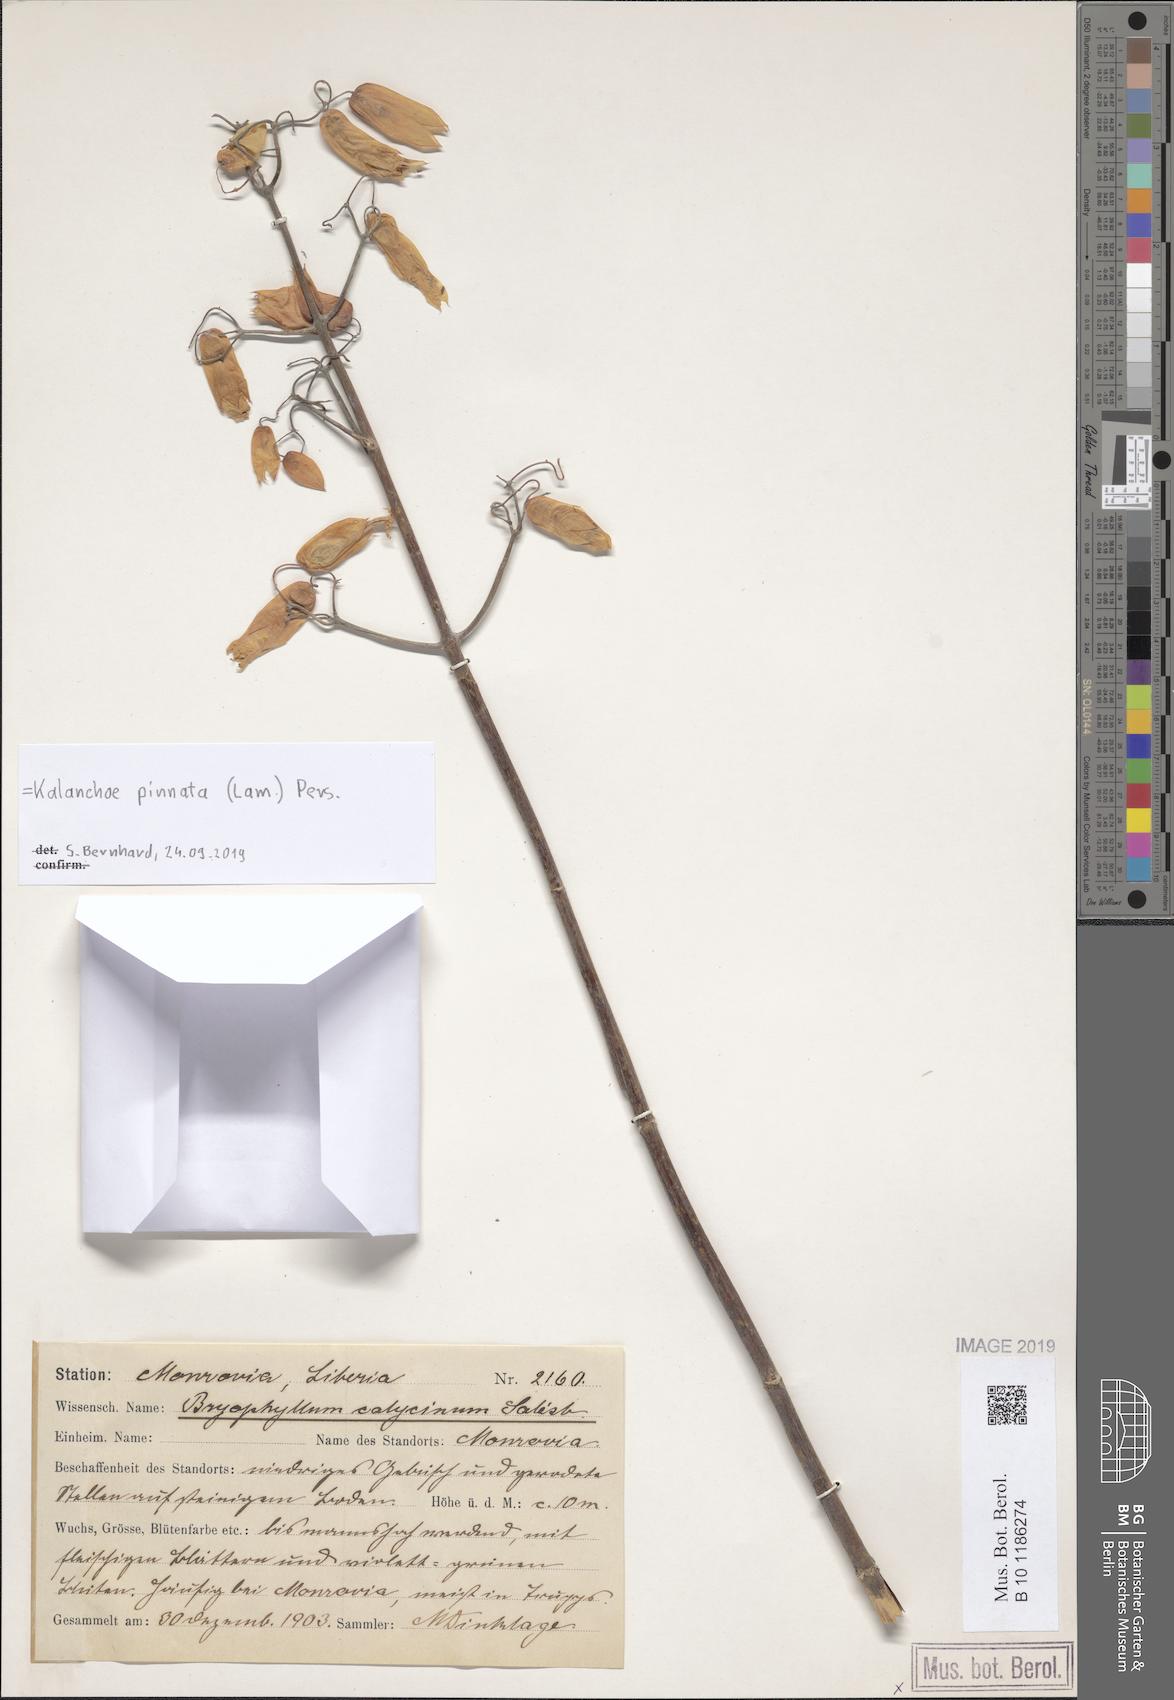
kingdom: Plantae
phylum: Tracheophyta
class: Magnoliopsida
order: Saxifragales
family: Crassulaceae
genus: Kalanchoe
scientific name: Kalanchoe pinnata
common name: Cathedral bells
